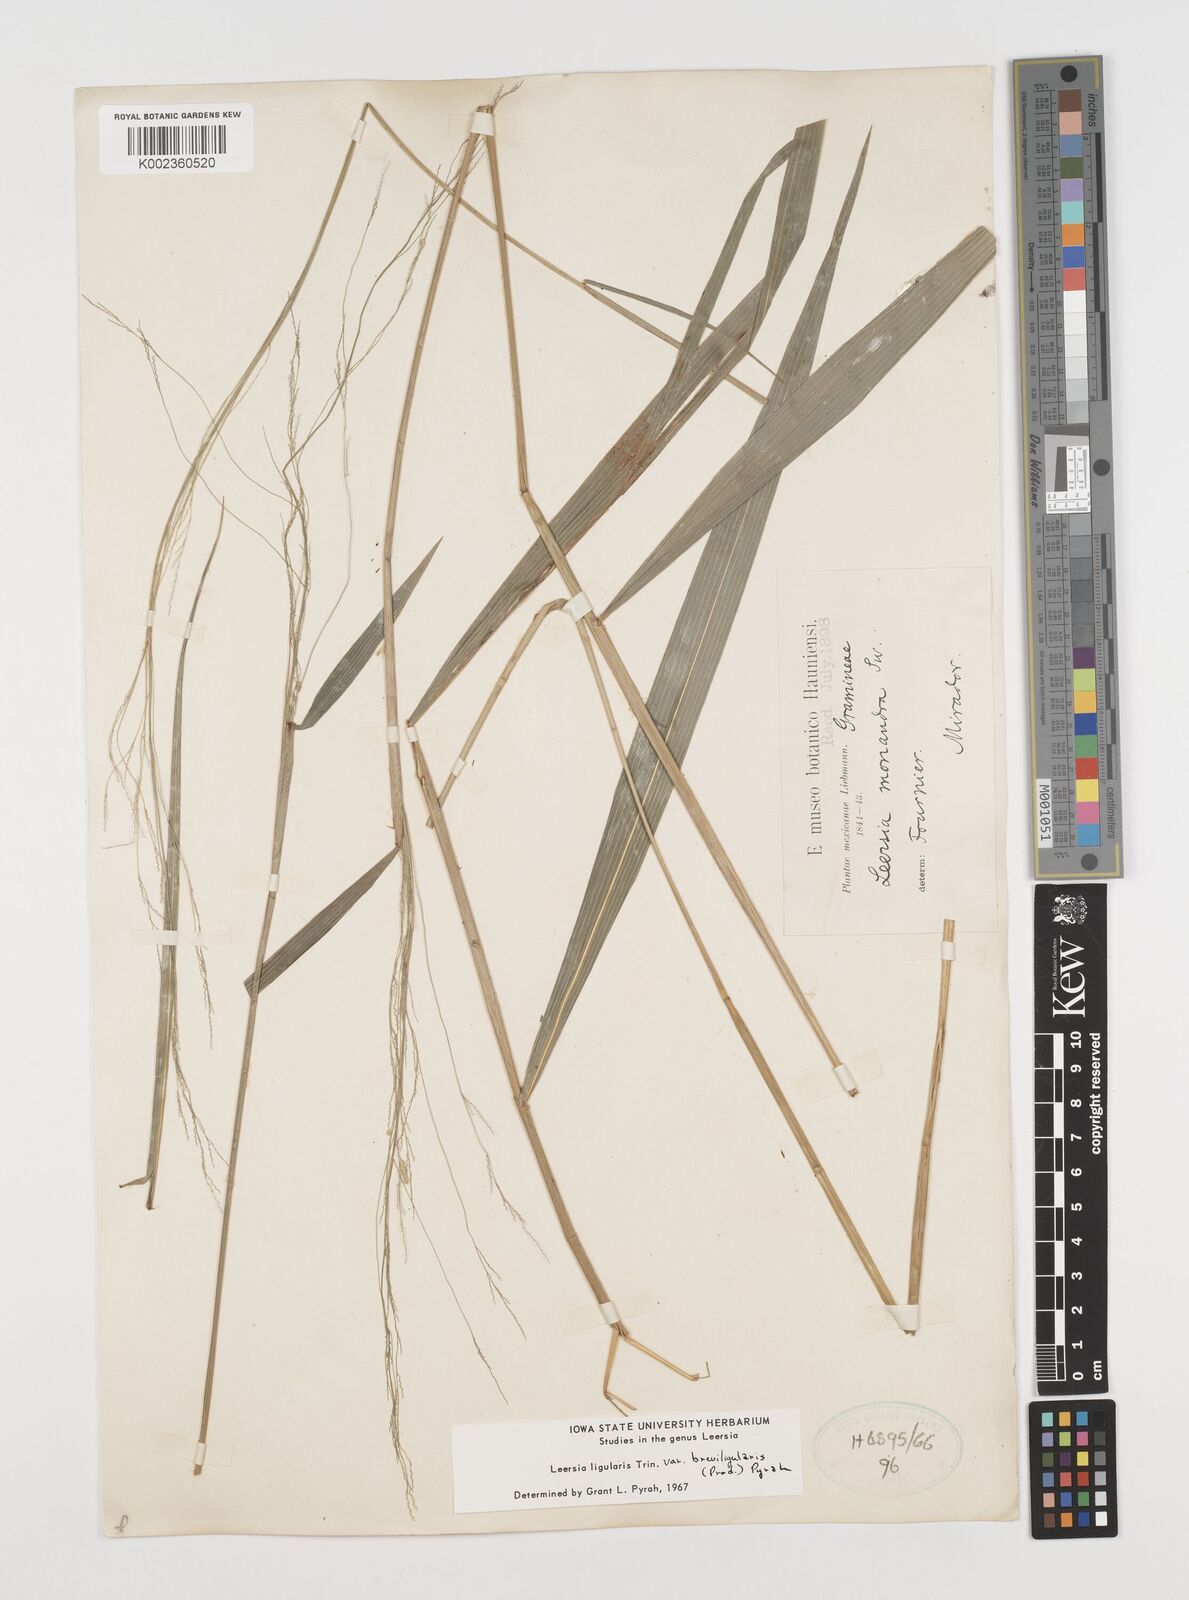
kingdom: Plantae
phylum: Tracheophyta
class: Liliopsida
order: Poales
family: Poaceae
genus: Leersia
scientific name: Leersia ligularis
